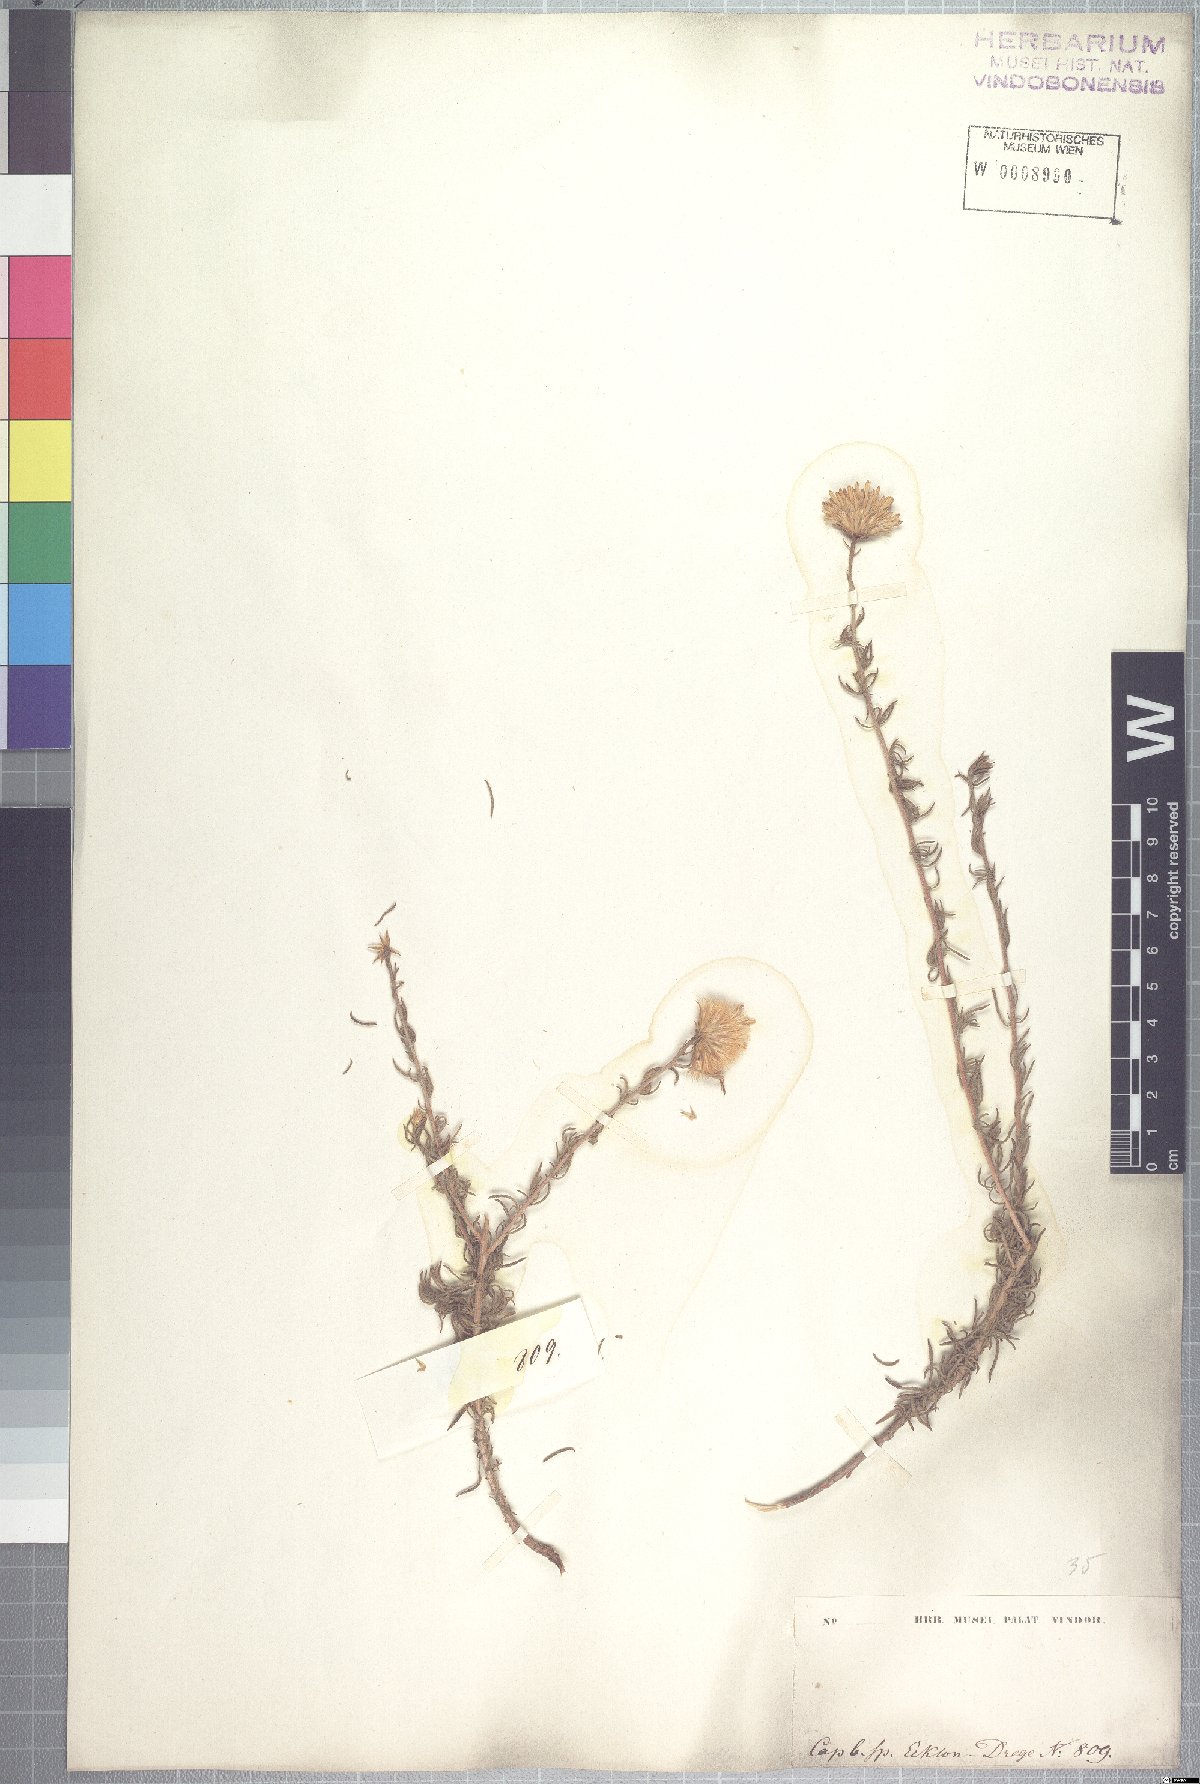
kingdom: Plantae
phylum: Tracheophyta
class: Magnoliopsida
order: Asterales
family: Asteraceae
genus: Pteronia
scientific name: Pteronia camphorata
